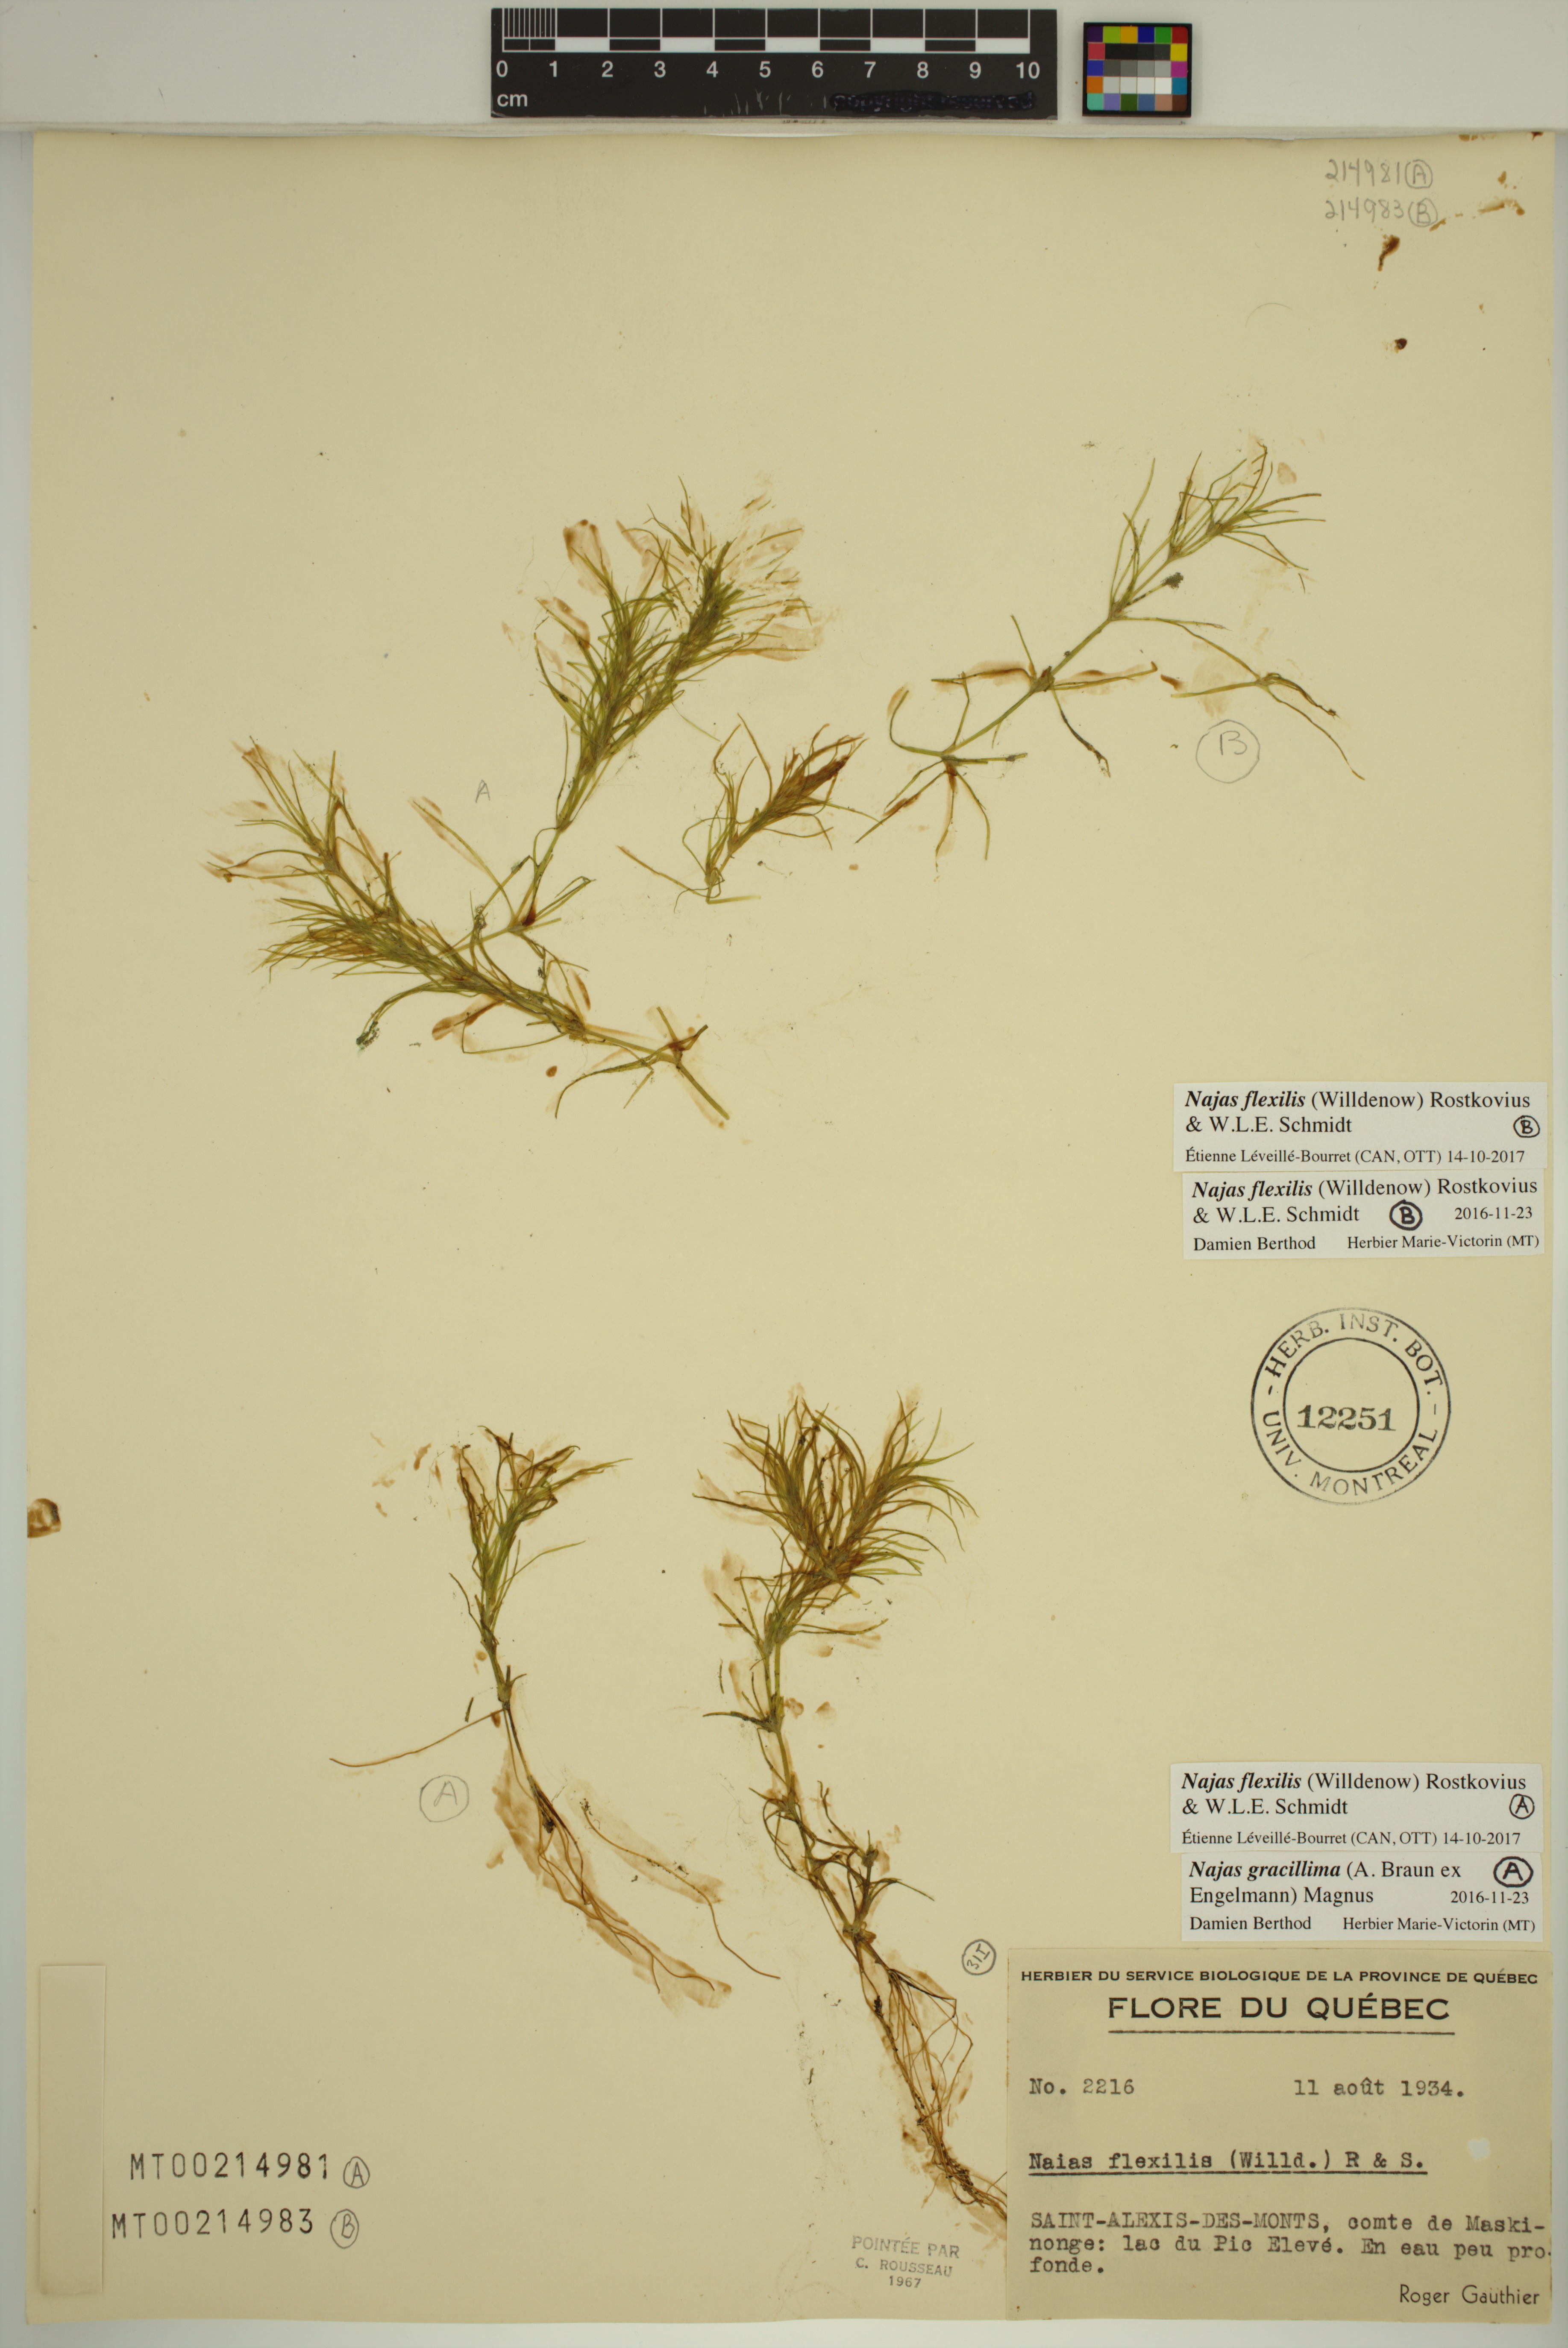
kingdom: Plantae
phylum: Tracheophyta
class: Liliopsida
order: Alismatales
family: Hydrocharitaceae
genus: Najas
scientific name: Najas flexilis
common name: Slender naiad
